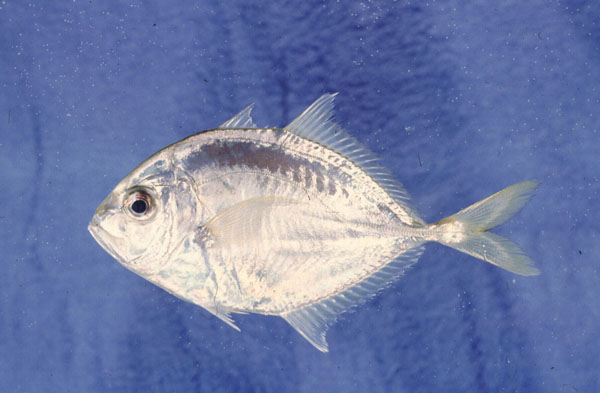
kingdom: Animalia
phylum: Chordata
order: Perciformes
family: Carangidae
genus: Carangoides
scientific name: Carangoides malabaricus
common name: Malabar trevally
